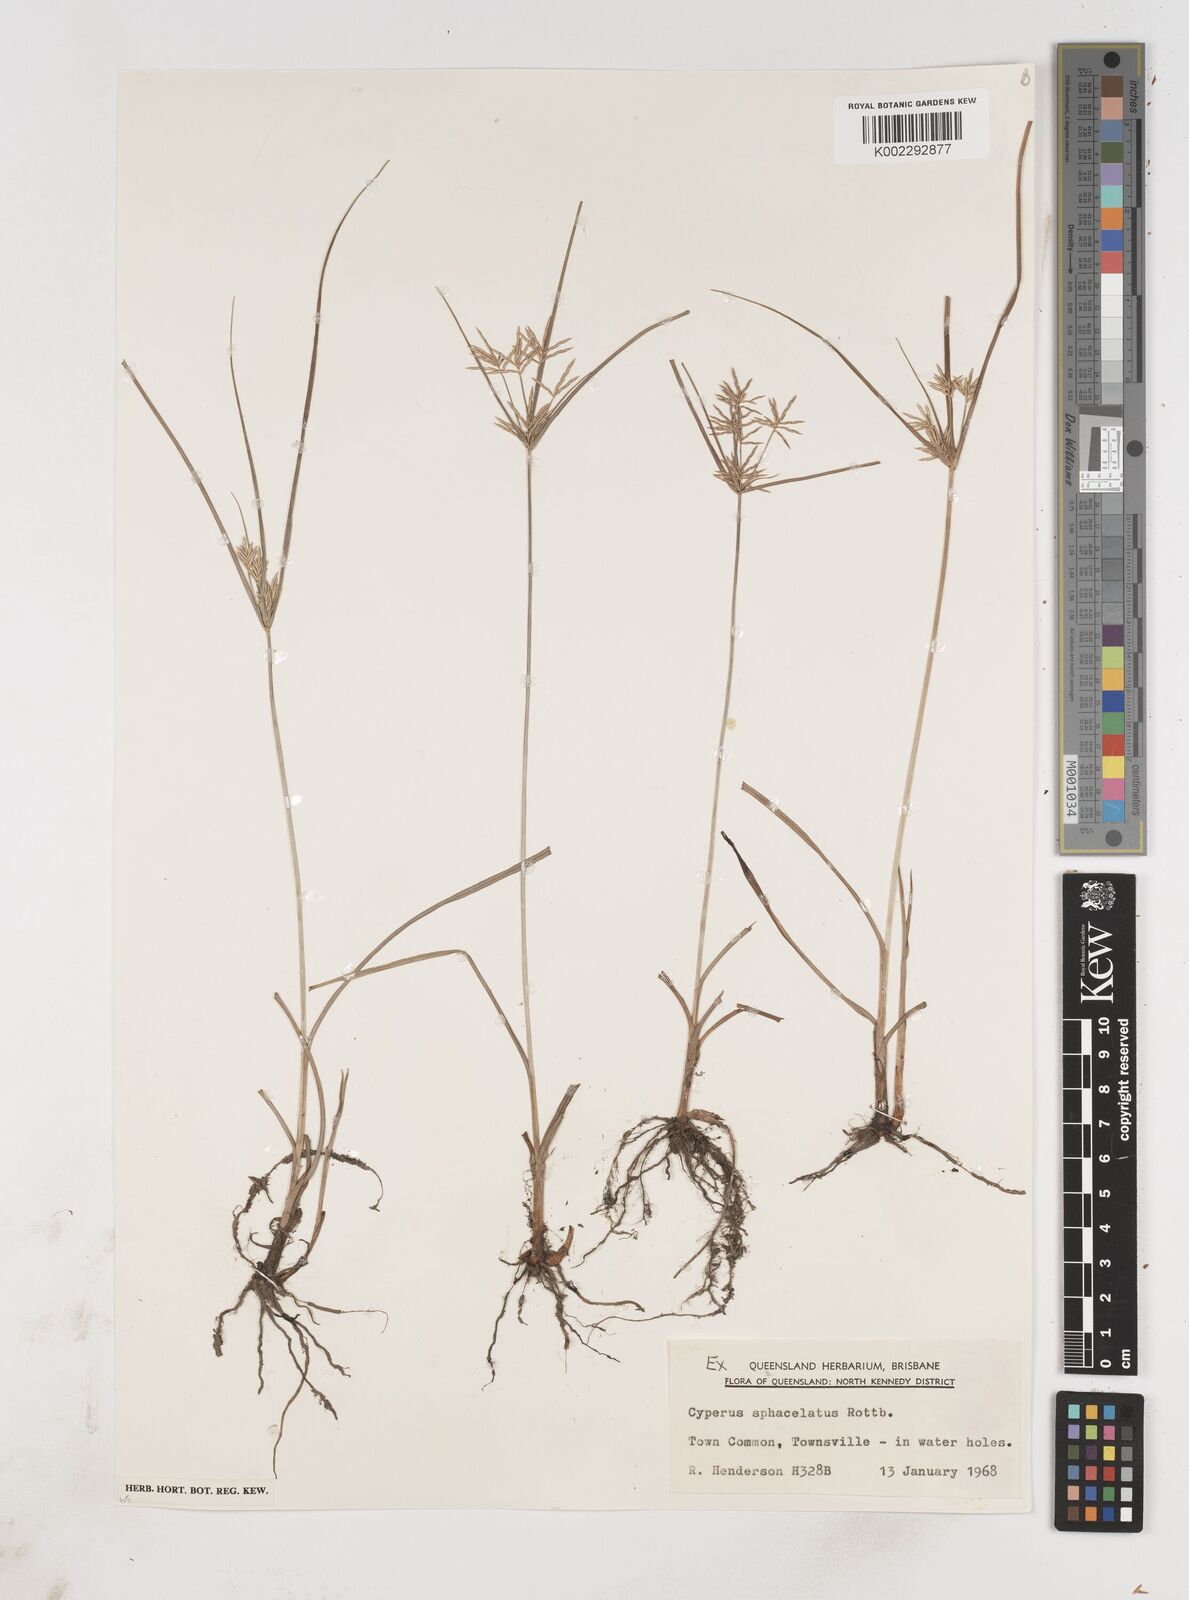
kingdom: Plantae
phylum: Tracheophyta
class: Liliopsida
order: Poales
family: Cyperaceae
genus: Cyperus
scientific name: Cyperus sphacelatus
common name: Roadside flatsedge
